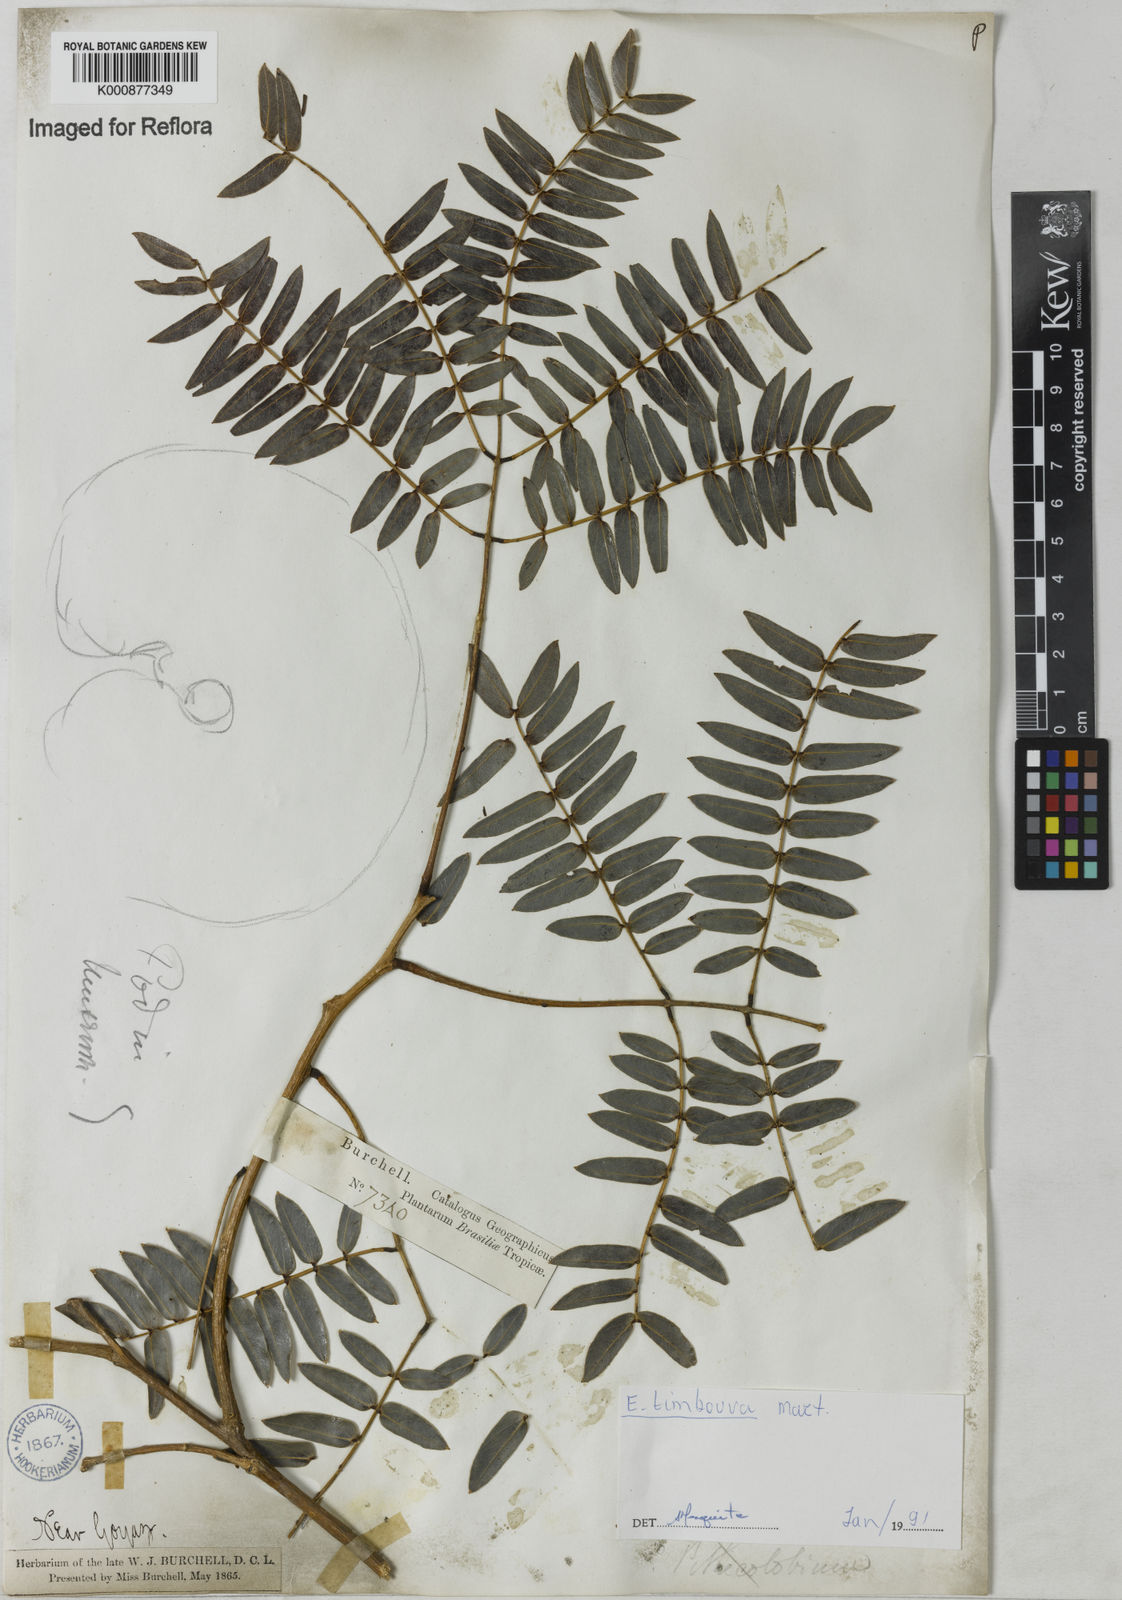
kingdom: Plantae
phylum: Tracheophyta
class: Magnoliopsida
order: Fabales
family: Fabaceae
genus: Enterolobium
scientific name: Enterolobium timbouva
